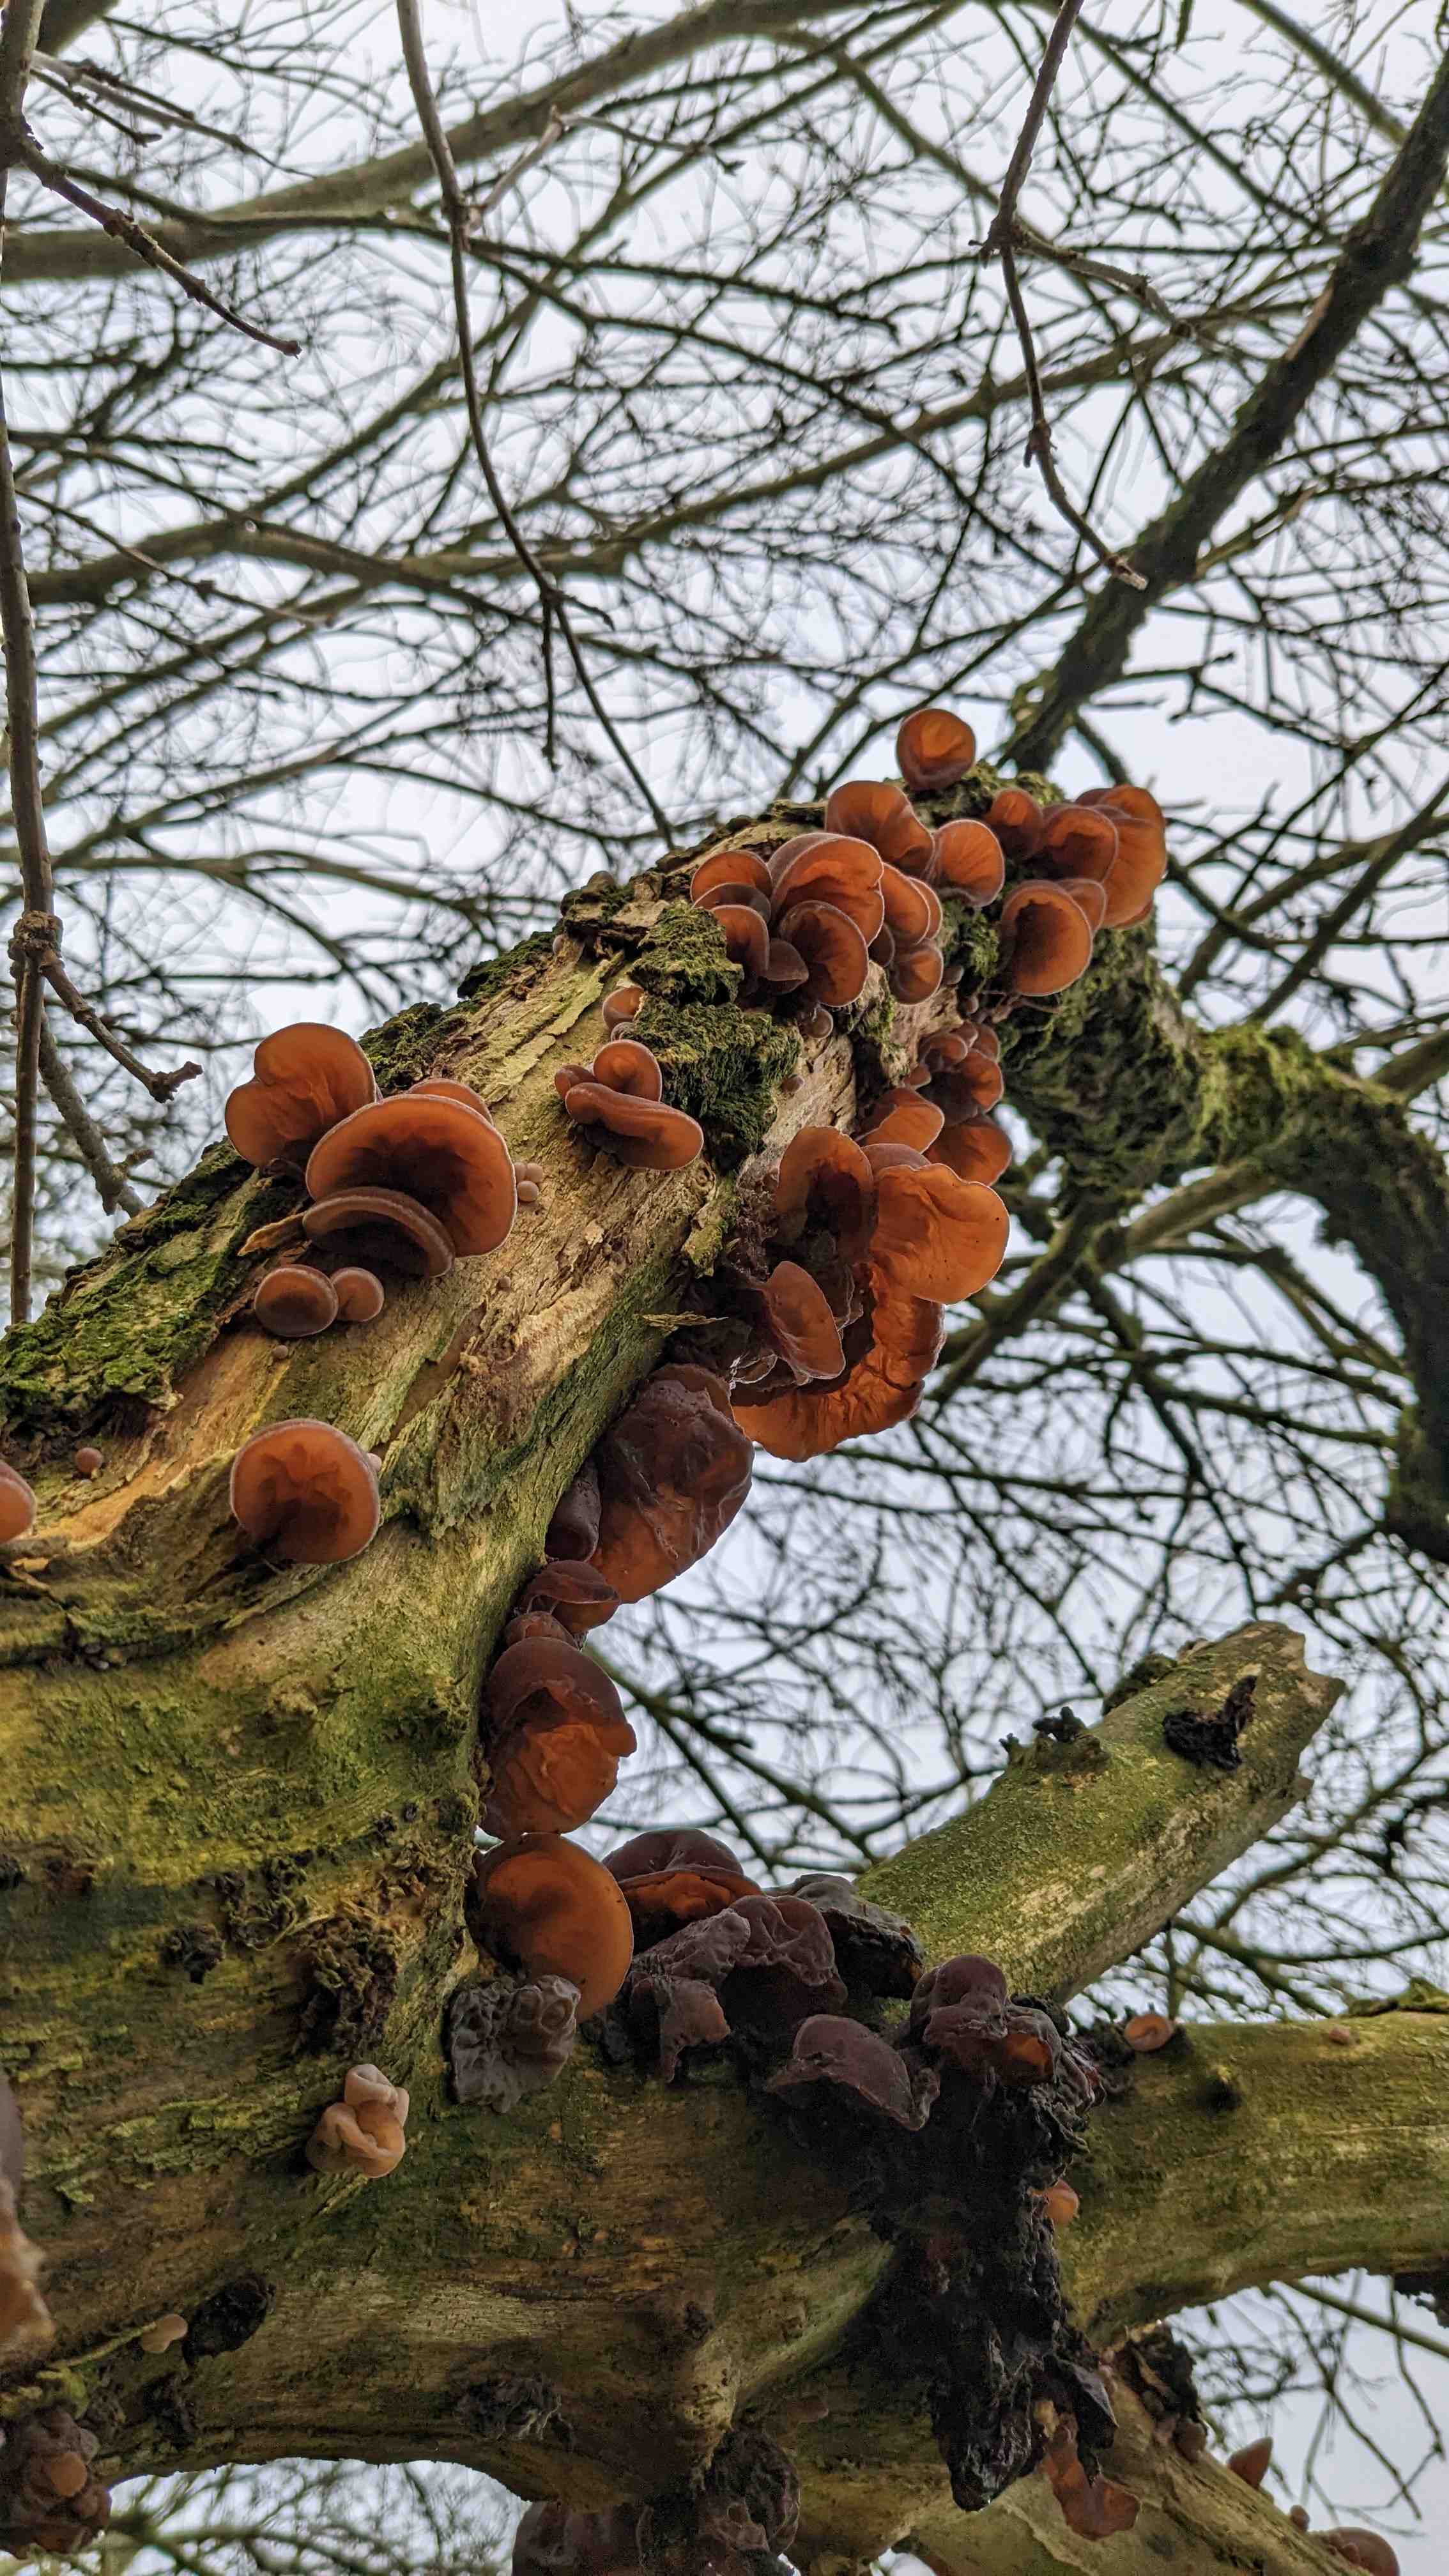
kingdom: Fungi
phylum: Basidiomycota
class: Agaricomycetes
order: Auriculariales
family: Auriculariaceae
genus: Auricularia
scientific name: Auricularia auricula-judae
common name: almindelig judasøre
